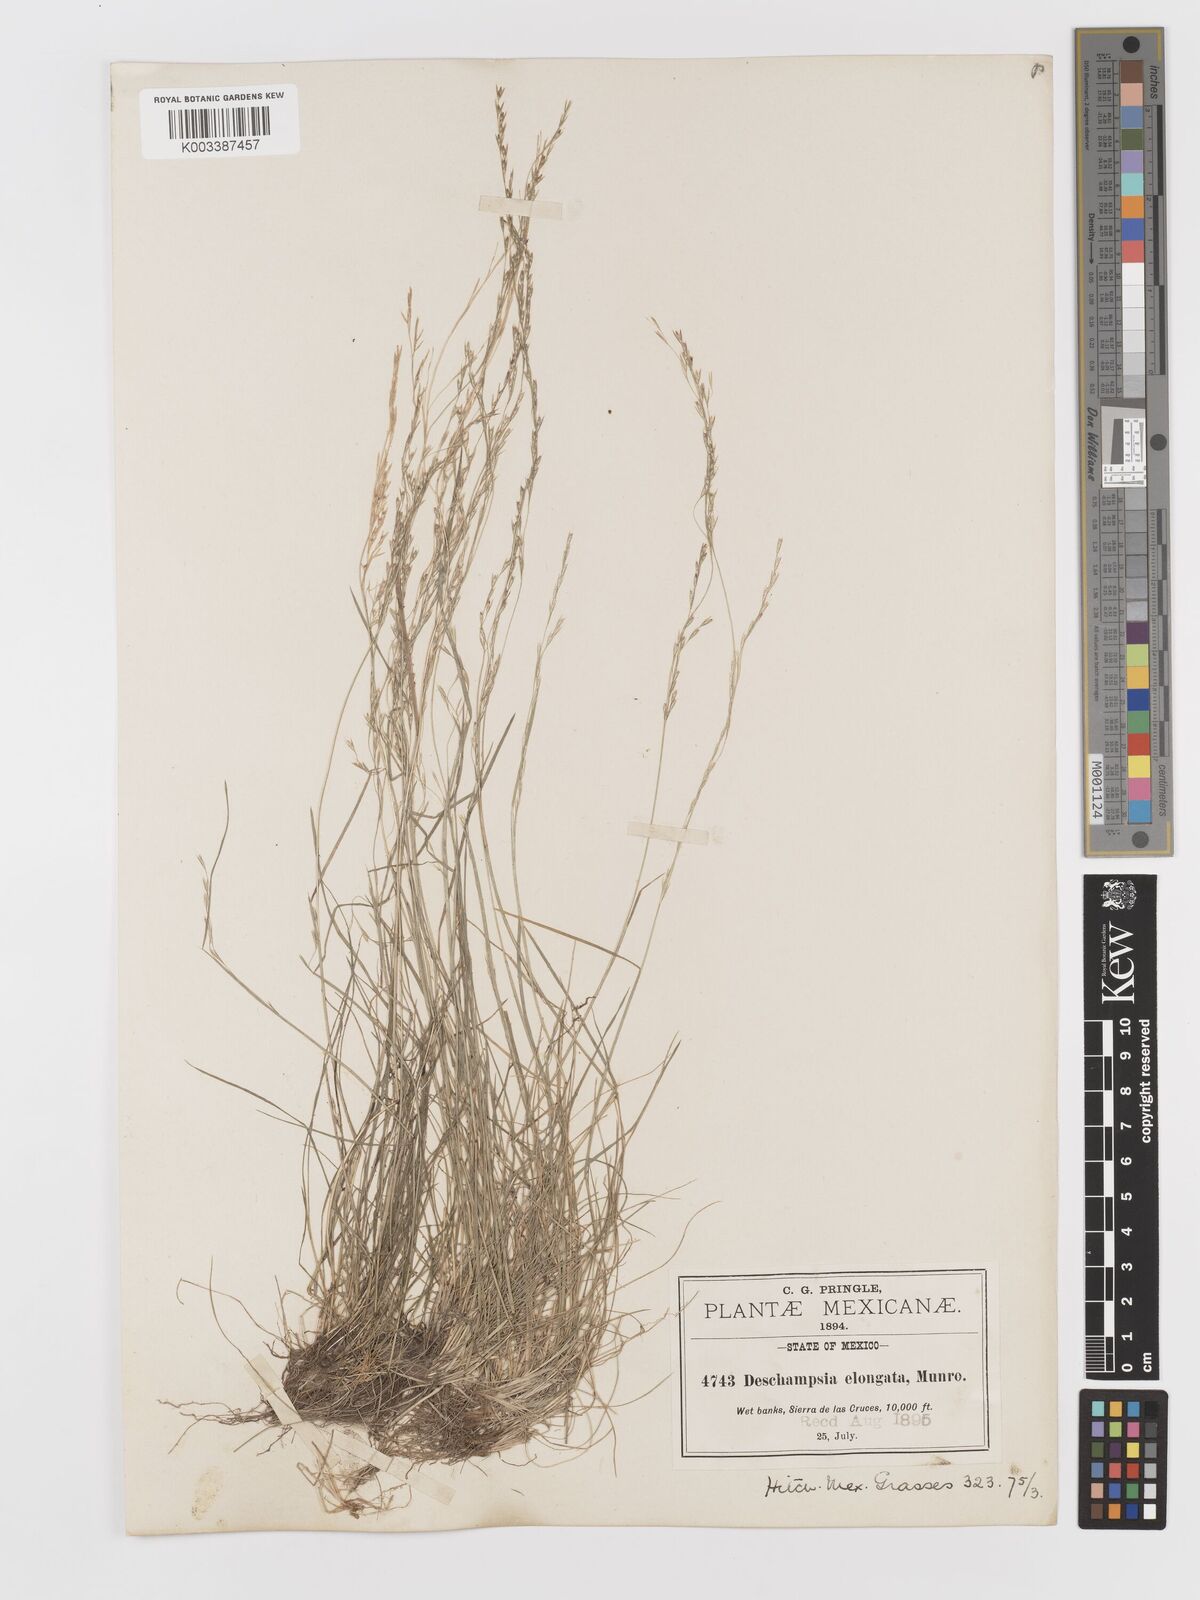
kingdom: Plantae
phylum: Tracheophyta
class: Liliopsida
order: Poales
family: Poaceae
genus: Deschampsia
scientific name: Deschampsia elongata
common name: Slender hairgrass
